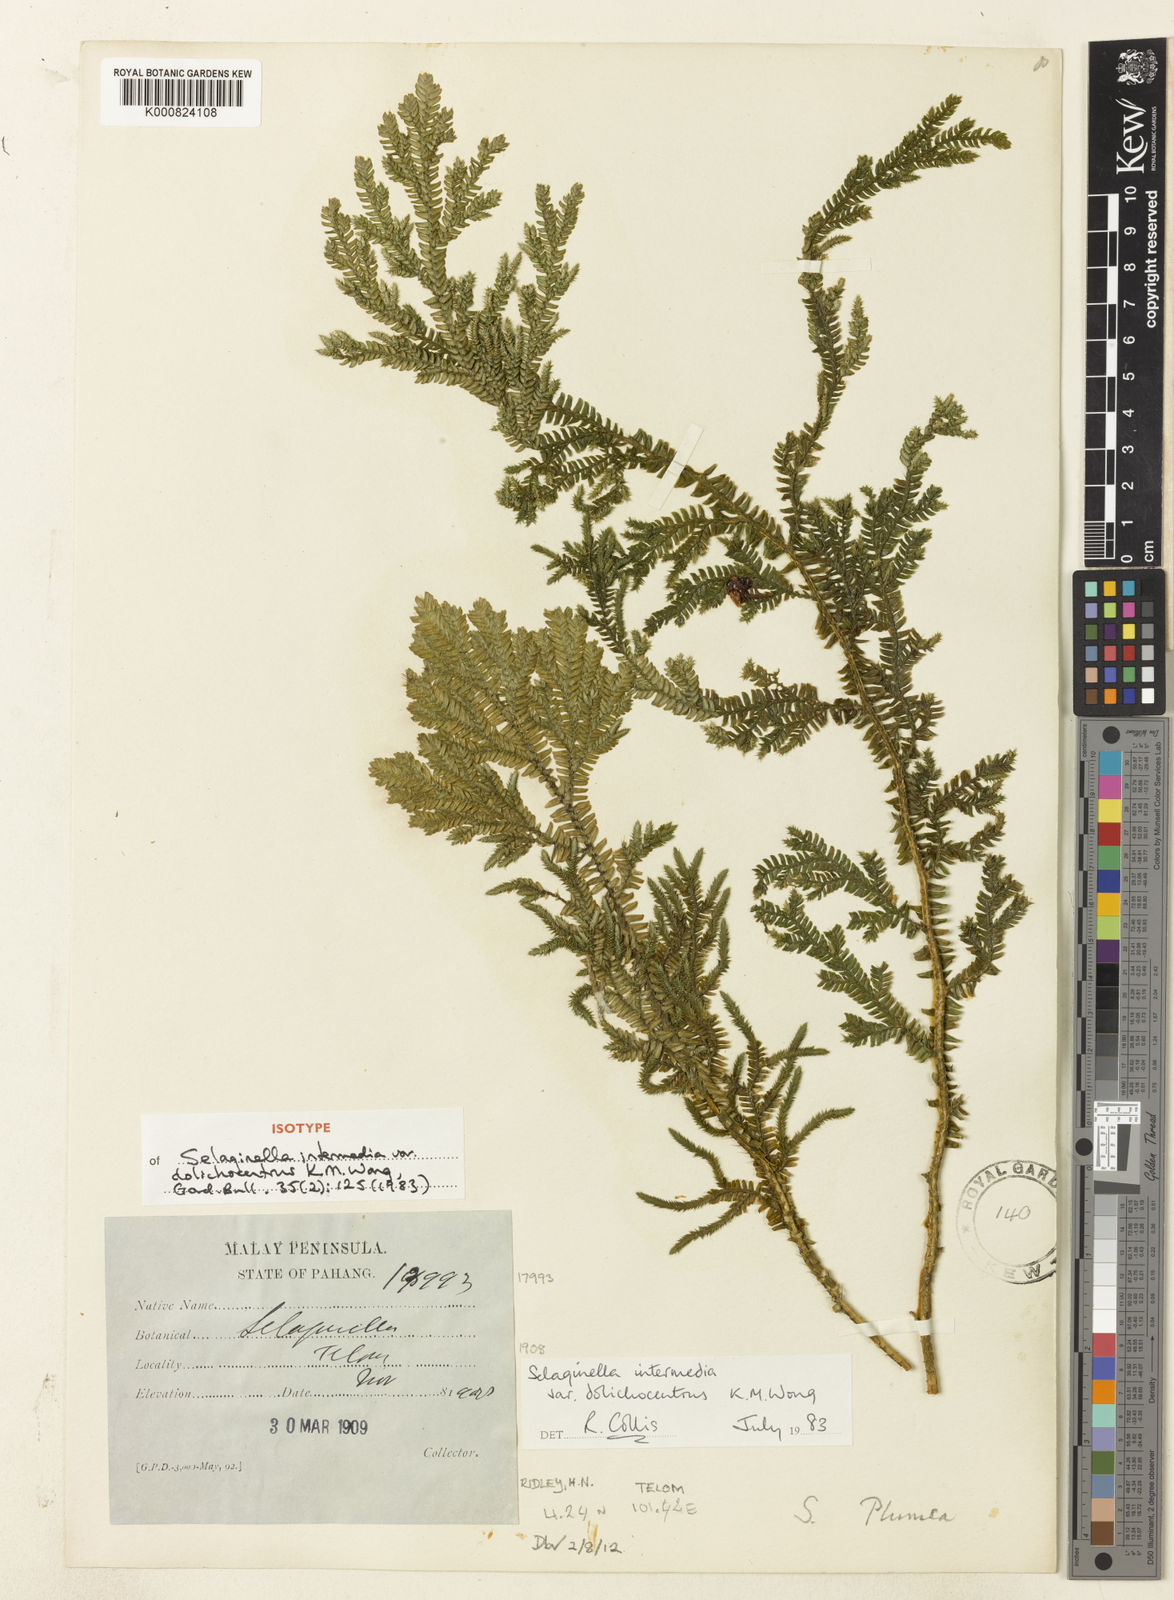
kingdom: Plantae
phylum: Tracheophyta
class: Lycopodiopsida
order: Selaginellales
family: Selaginellaceae
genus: Selaginella
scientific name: Selaginella intermedia
